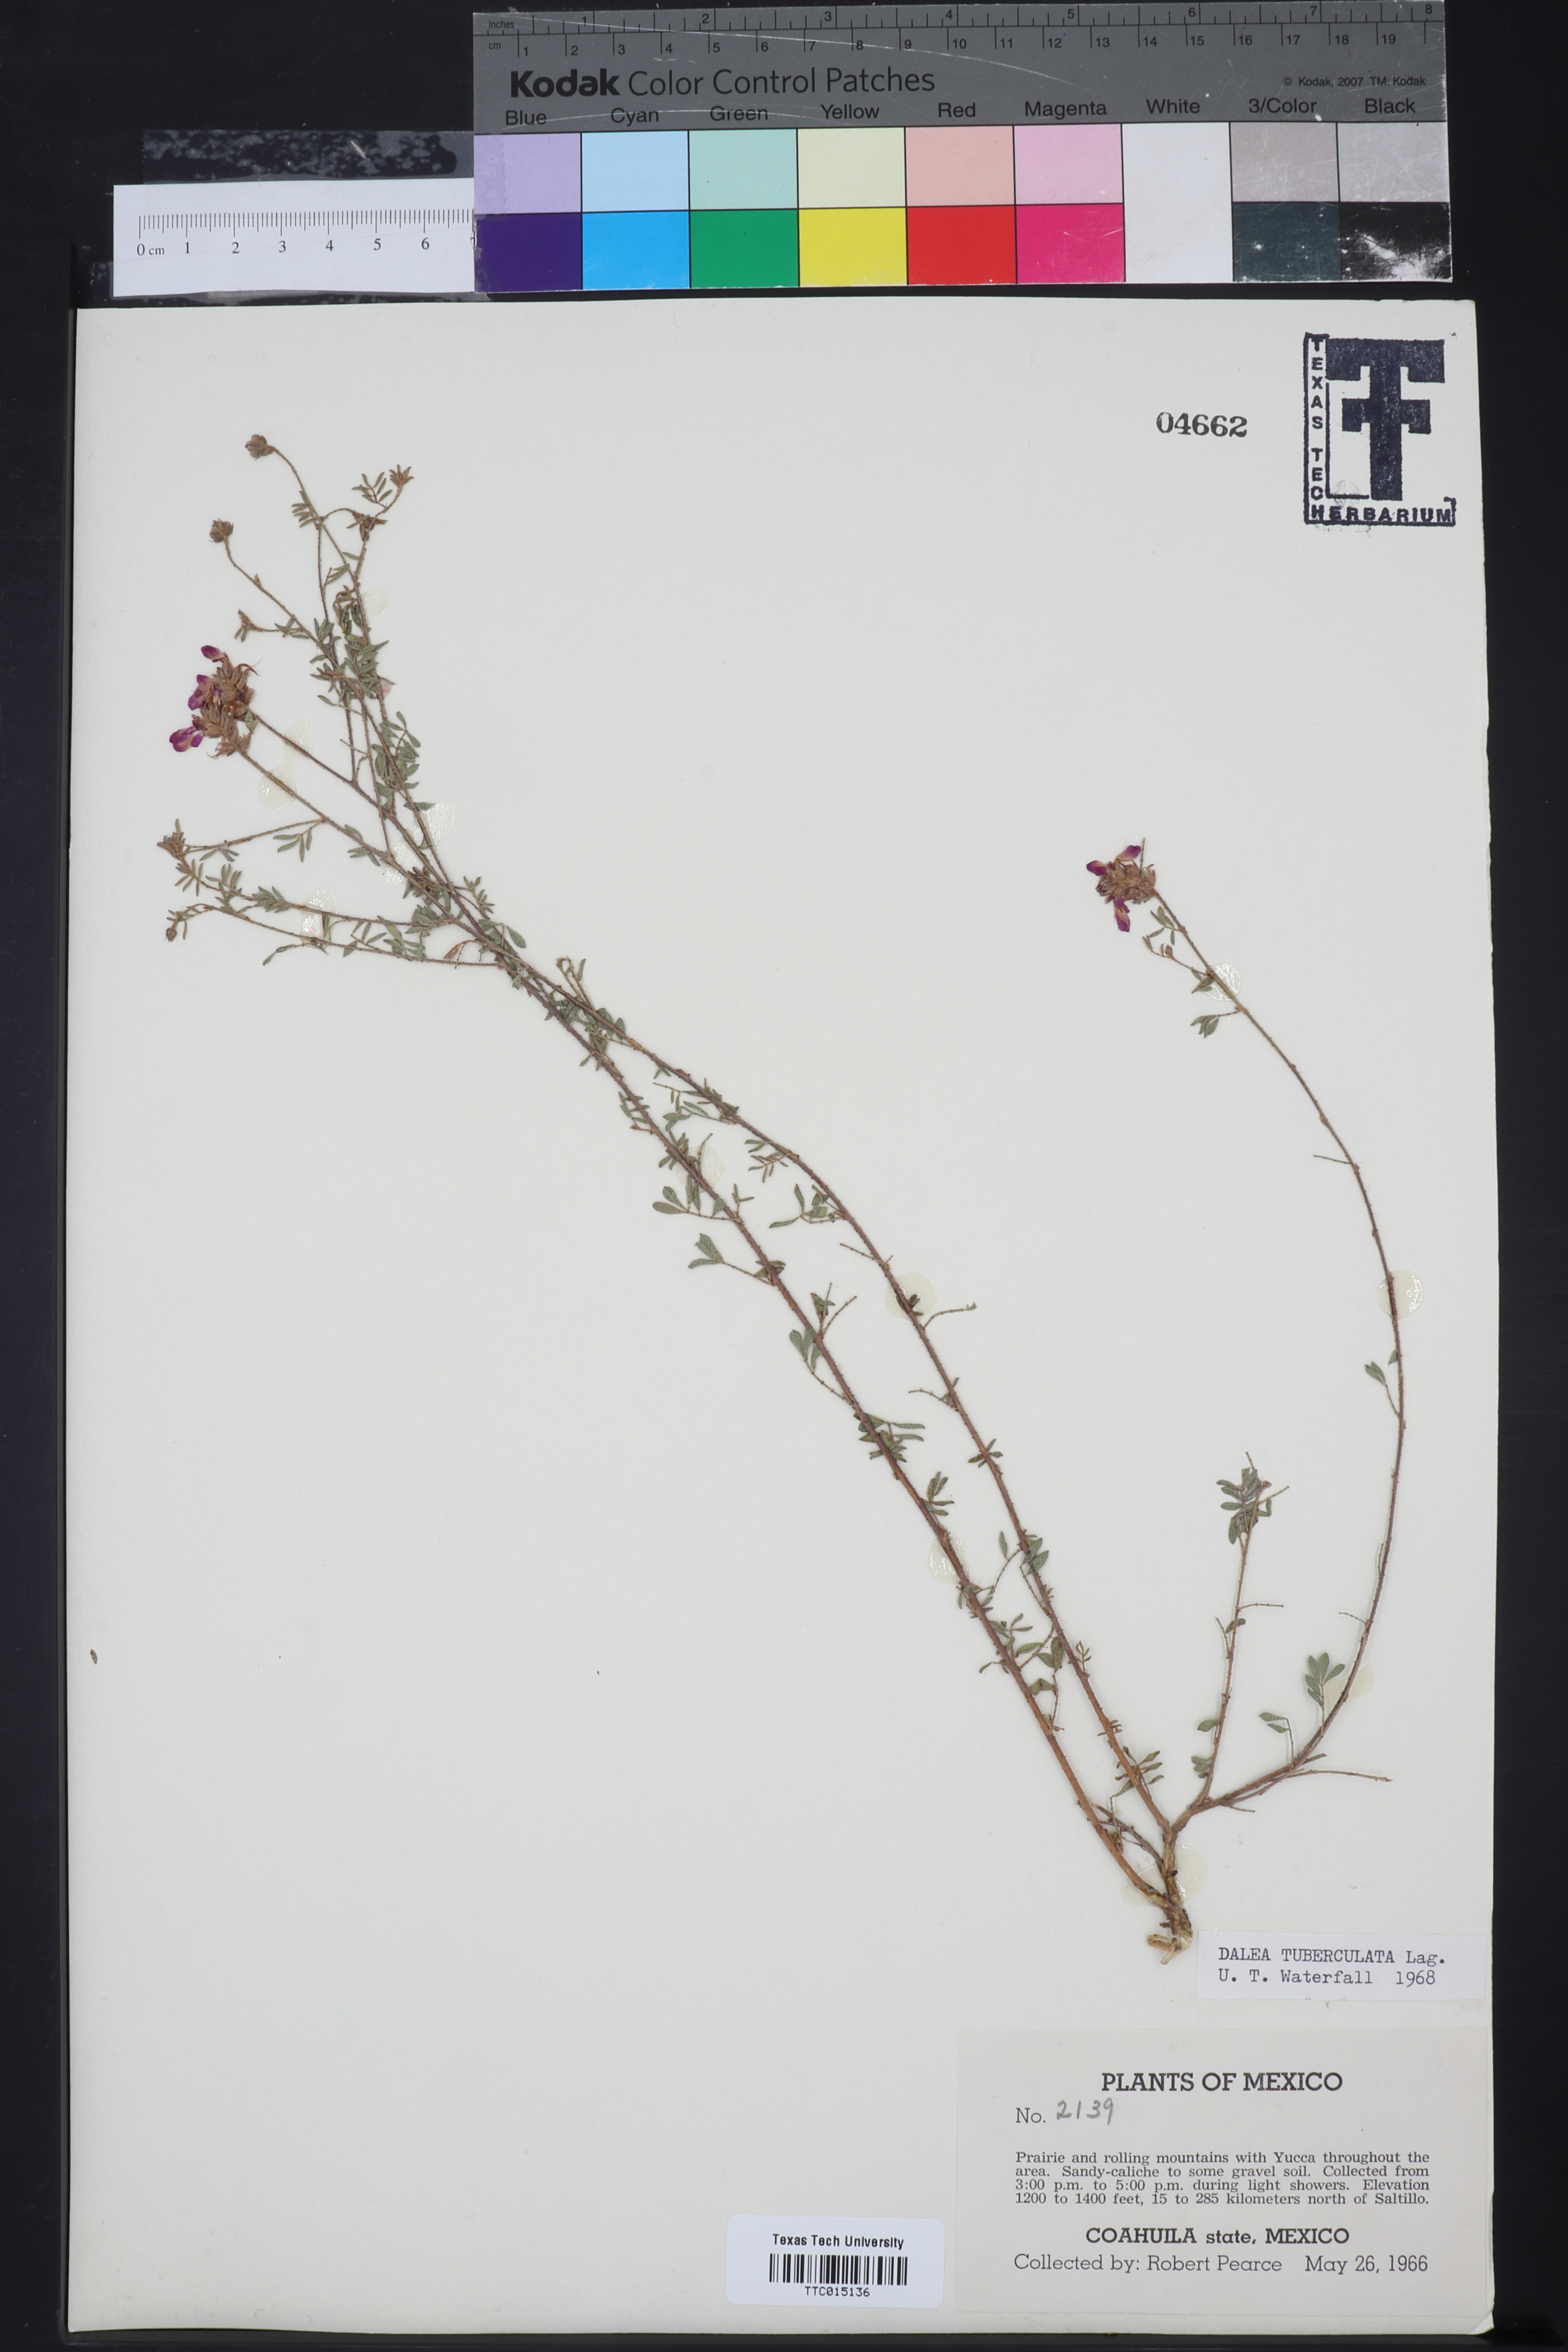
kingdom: Plantae
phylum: Tracheophyta
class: Magnoliopsida
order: Fabales
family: Fabaceae
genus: Dalea
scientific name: Dalea bicolor
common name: Silver prairie-clover
